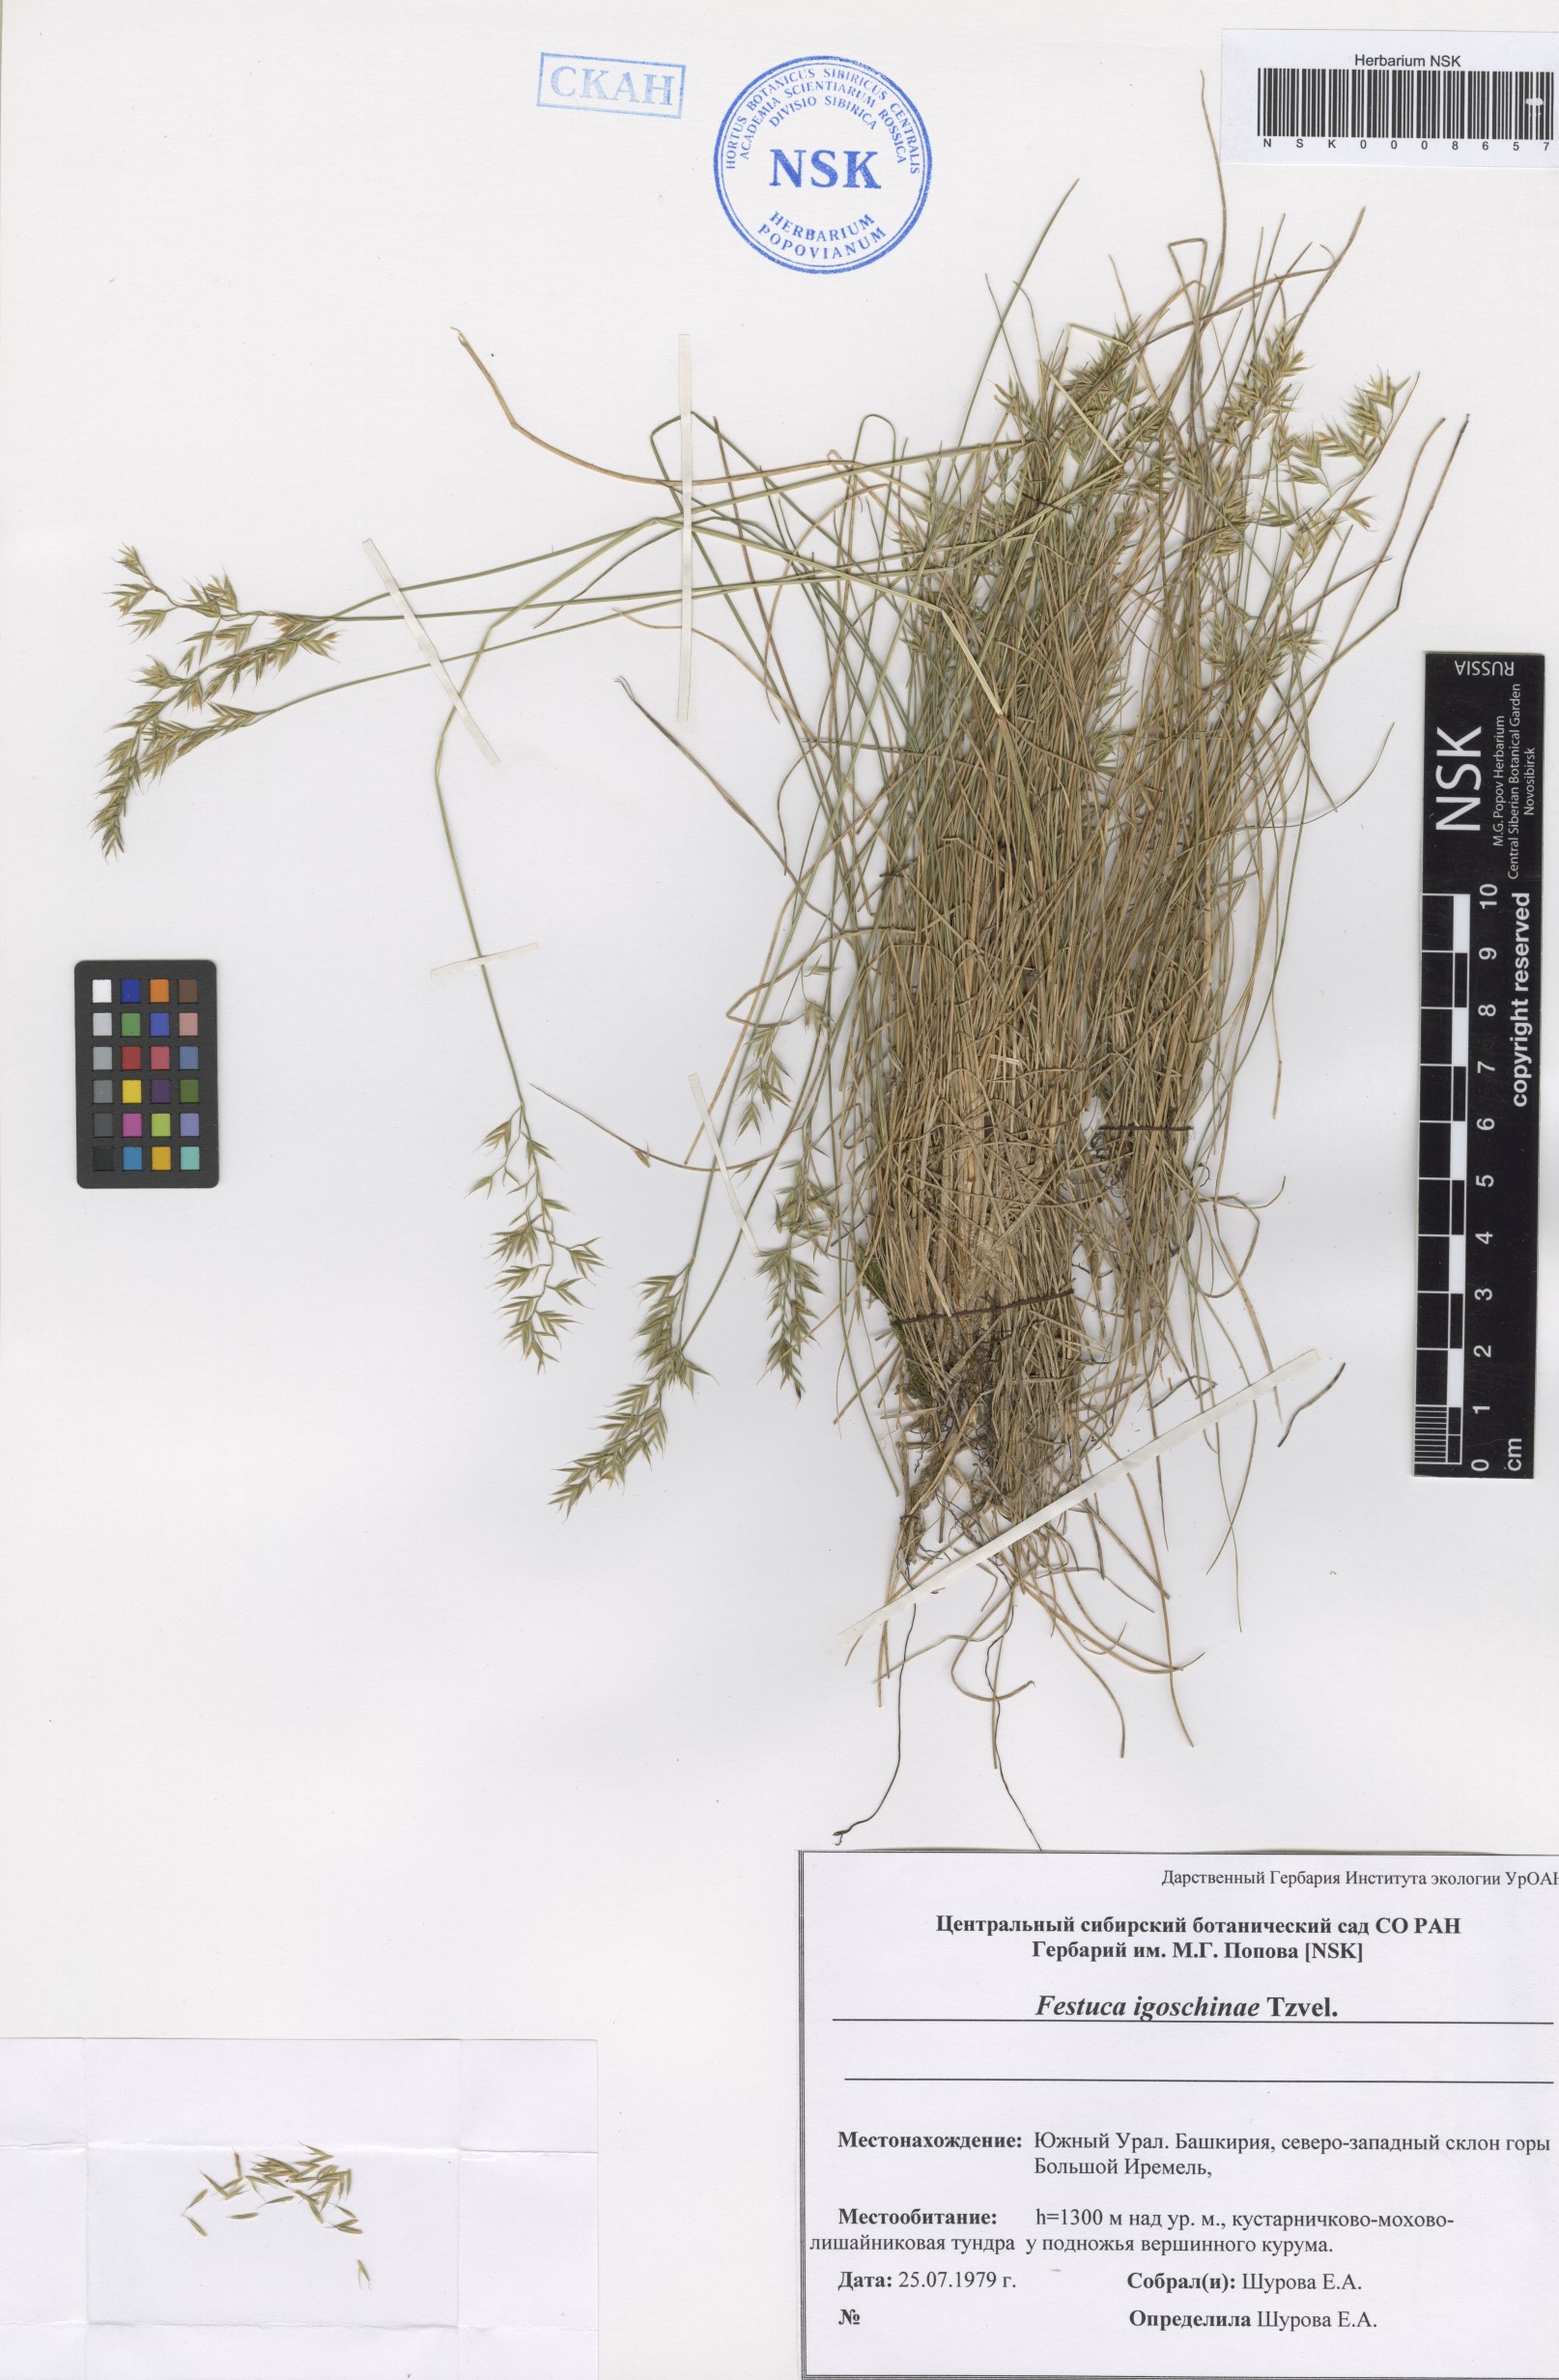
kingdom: Plantae
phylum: Tracheophyta
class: Liliopsida
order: Poales
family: Poaceae
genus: Festuca
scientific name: Festuca igoschiniae
